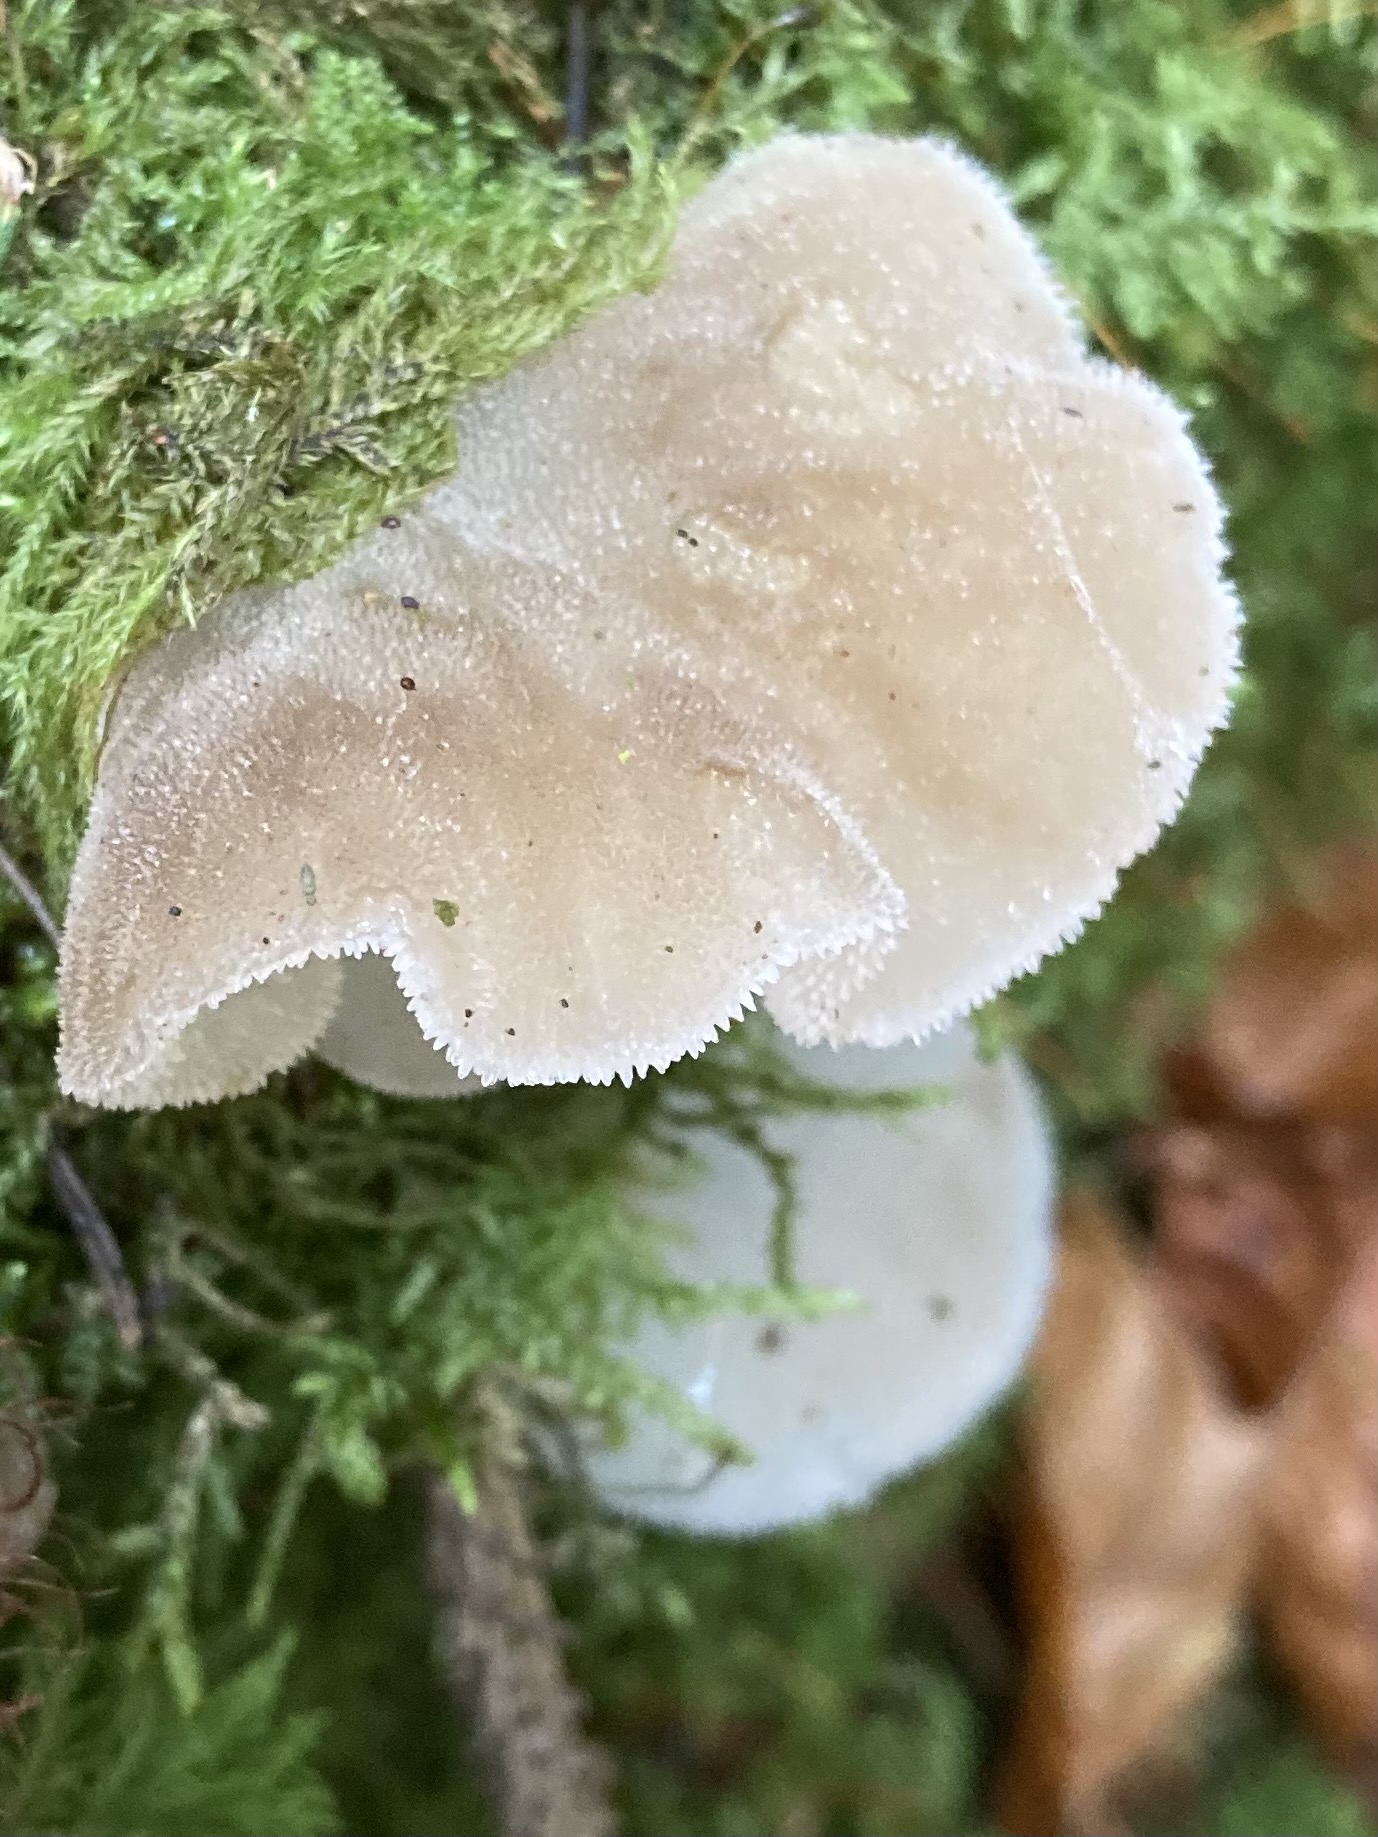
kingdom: Fungi
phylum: Basidiomycota
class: Agaricomycetes
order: Auriculariales
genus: Pseudohydnum
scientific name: Pseudohydnum gelatinosum
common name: bævretand
